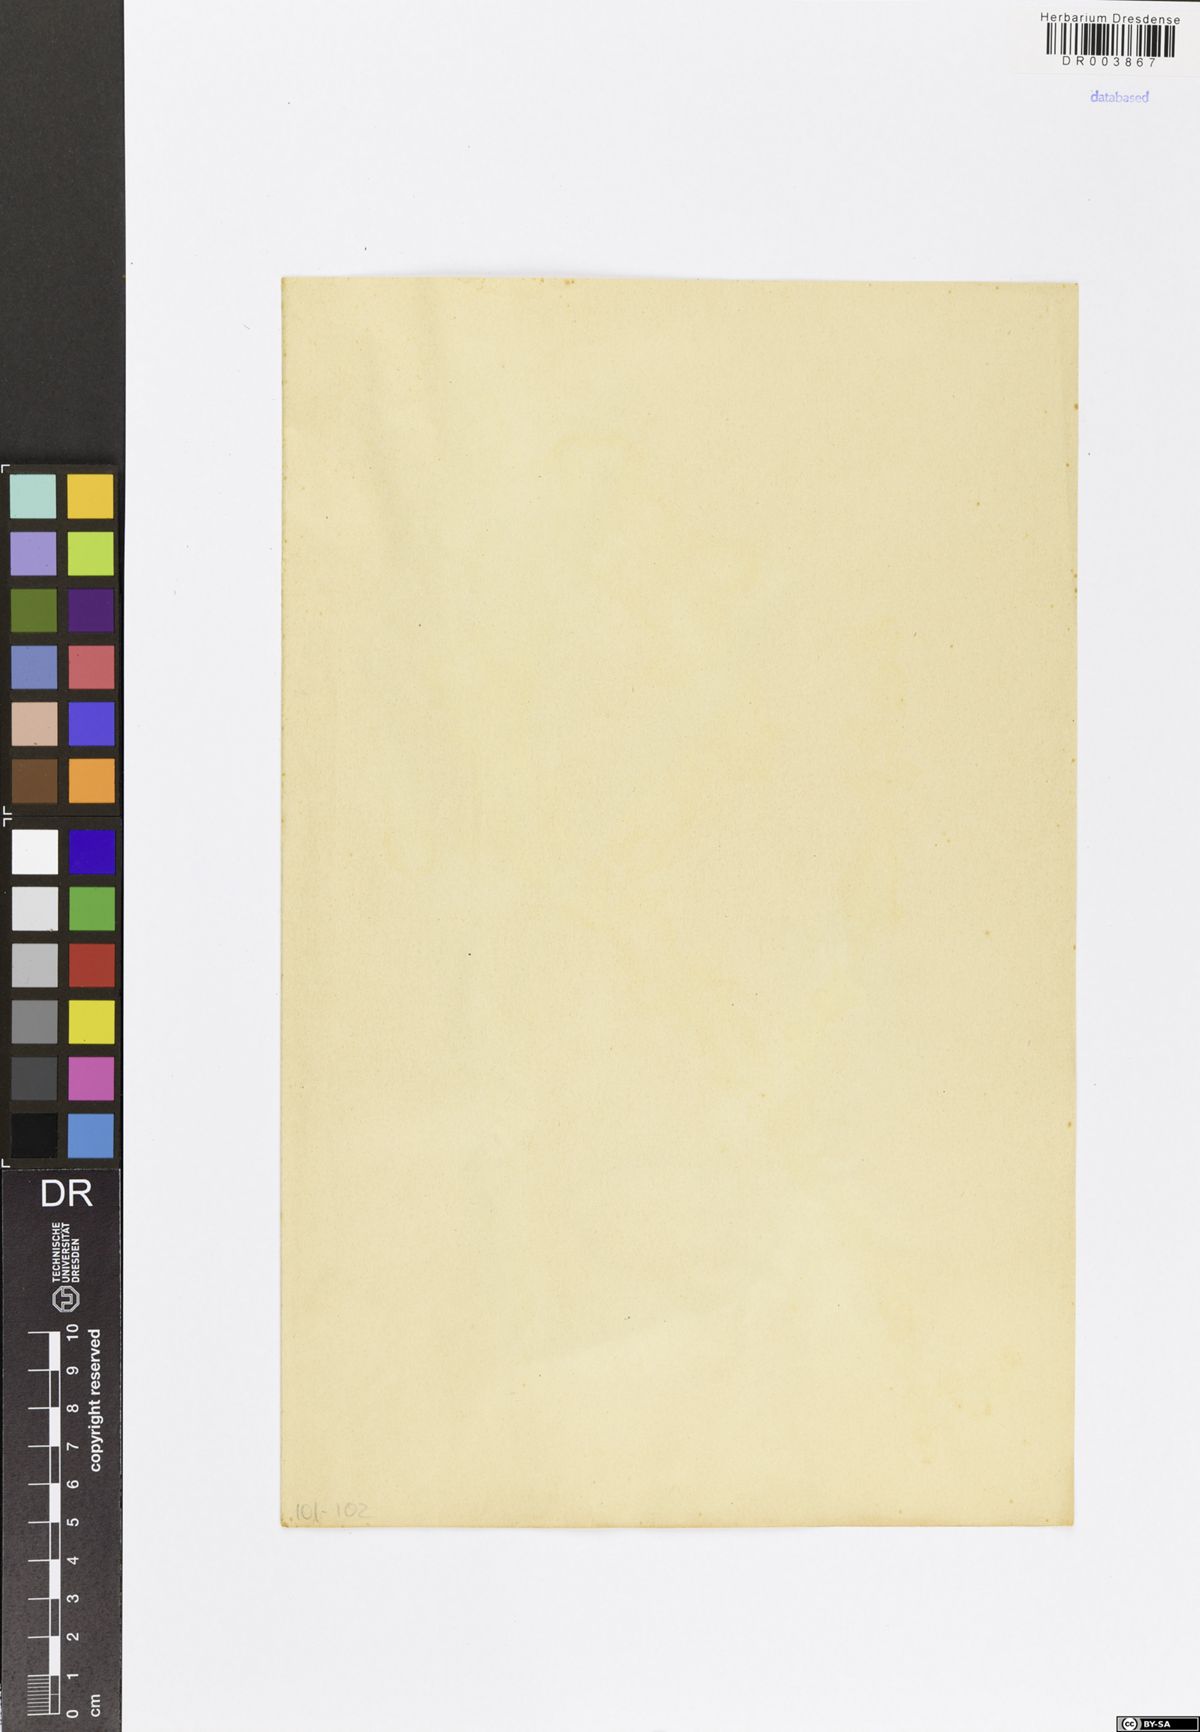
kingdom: Plantae
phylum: Tracheophyta
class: Magnoliopsida
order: Caryophyllales
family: Polygonaceae
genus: Rumex
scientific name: Rumex maritimus
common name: Golden dock
